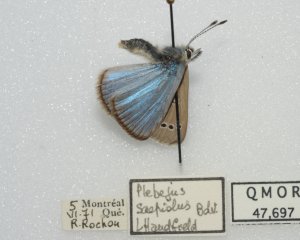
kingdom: Animalia
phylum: Arthropoda
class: Insecta
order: Lepidoptera
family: Lycaenidae
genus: Glaucopsyche
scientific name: Glaucopsyche lygdamus
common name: Silvery Blue
